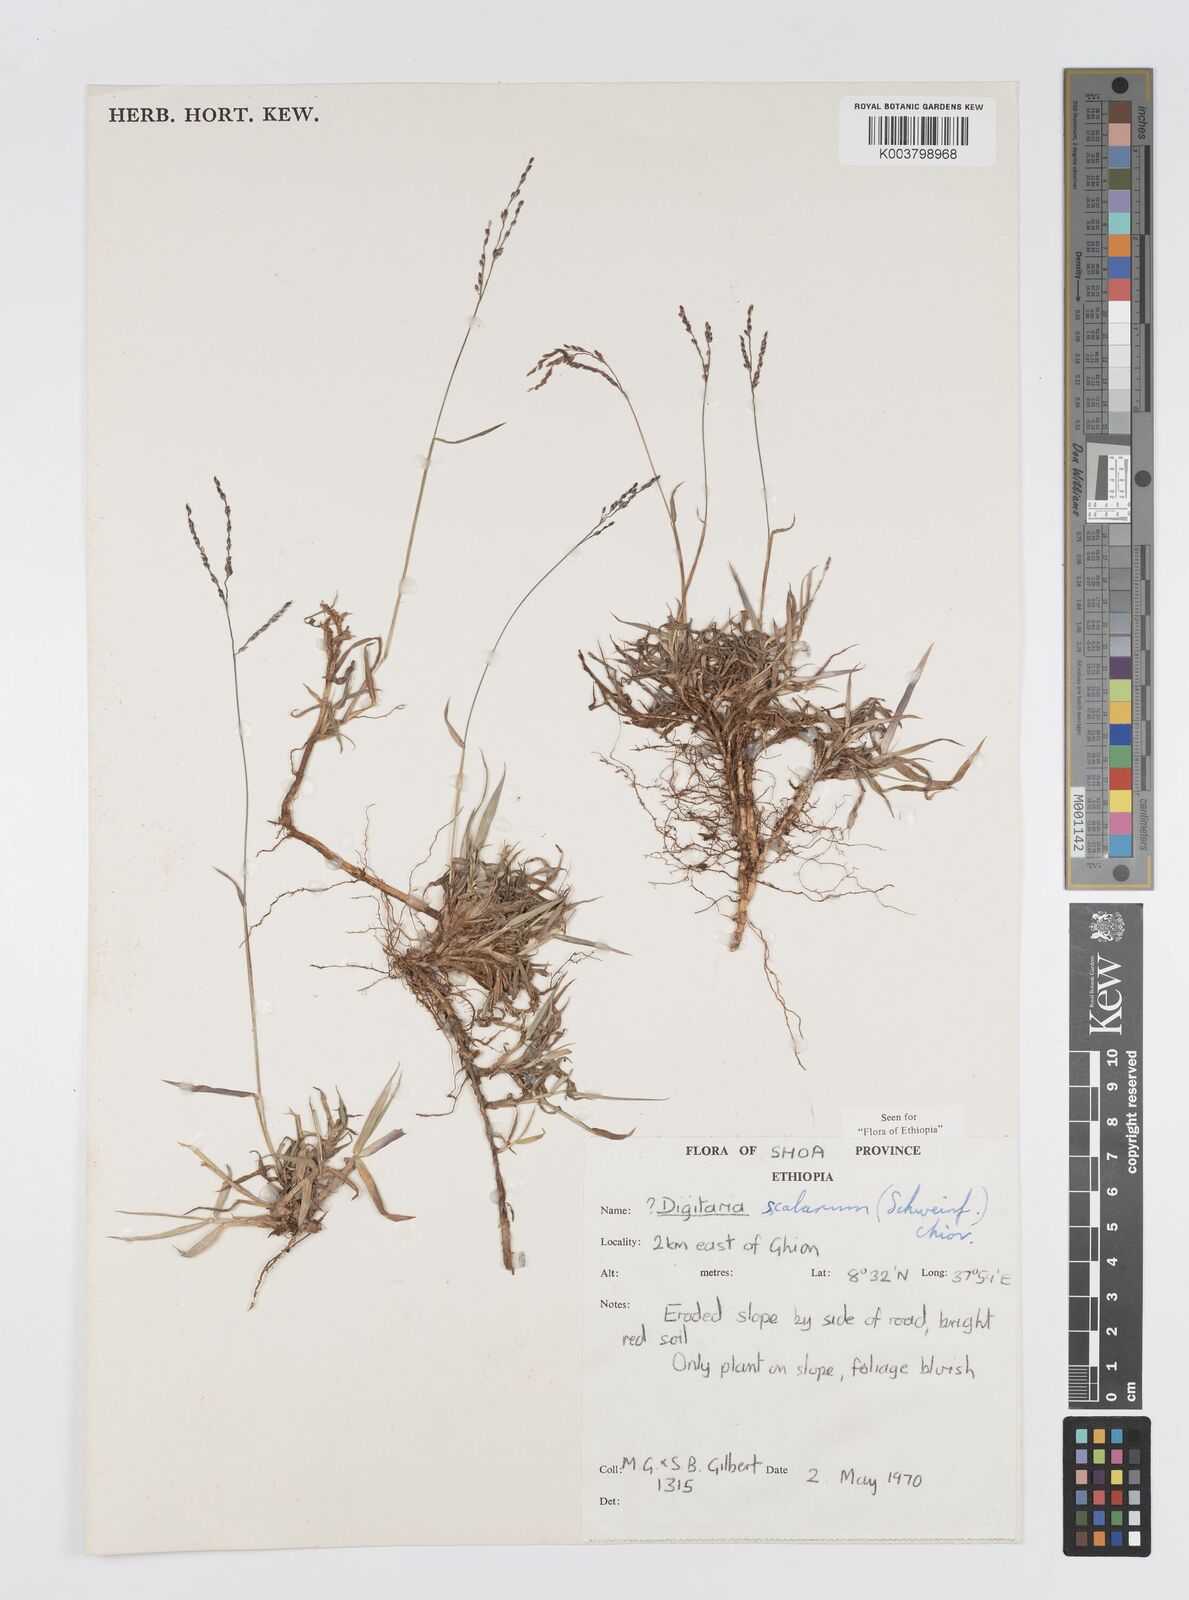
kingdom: Plantae
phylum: Tracheophyta
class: Liliopsida
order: Poales
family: Poaceae
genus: Digitaria
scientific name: Digitaria abyssinica
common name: African couchgrass
